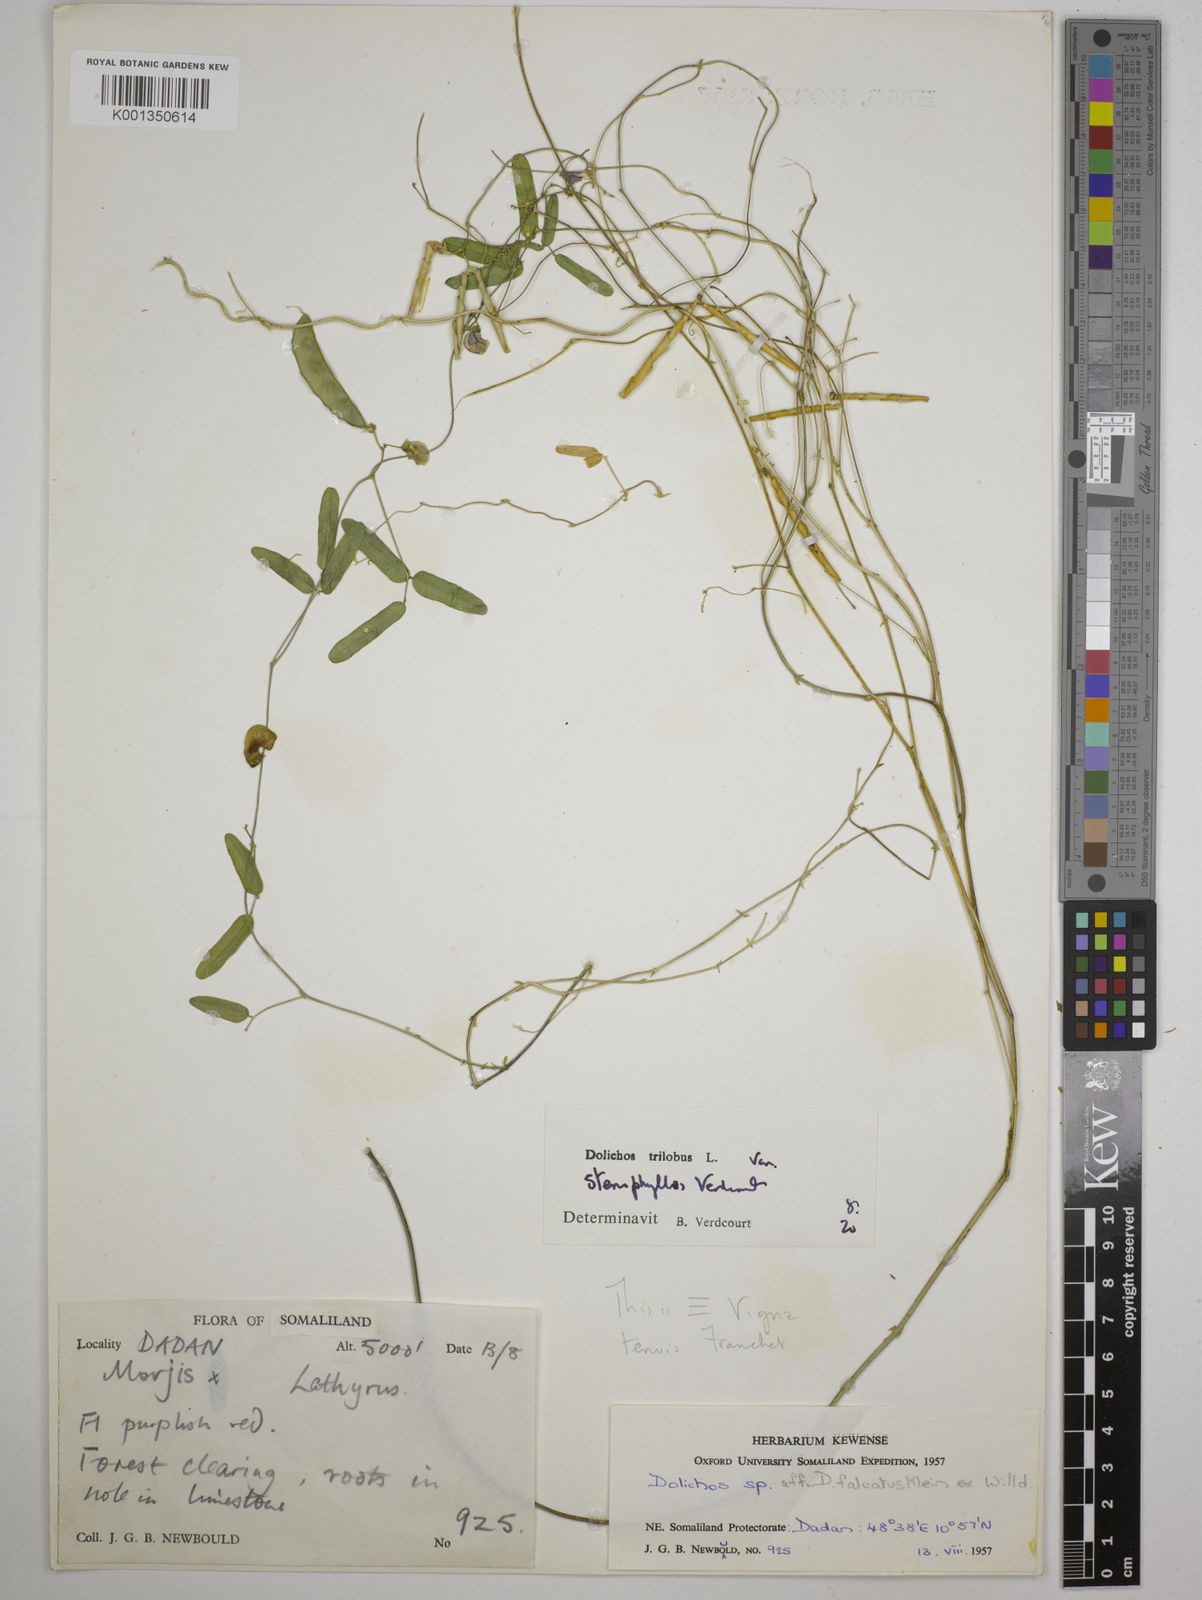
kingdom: Plantae
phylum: Tracheophyta
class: Magnoliopsida
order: Fabales
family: Fabaceae
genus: Dolichos
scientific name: Dolichos trilobus
